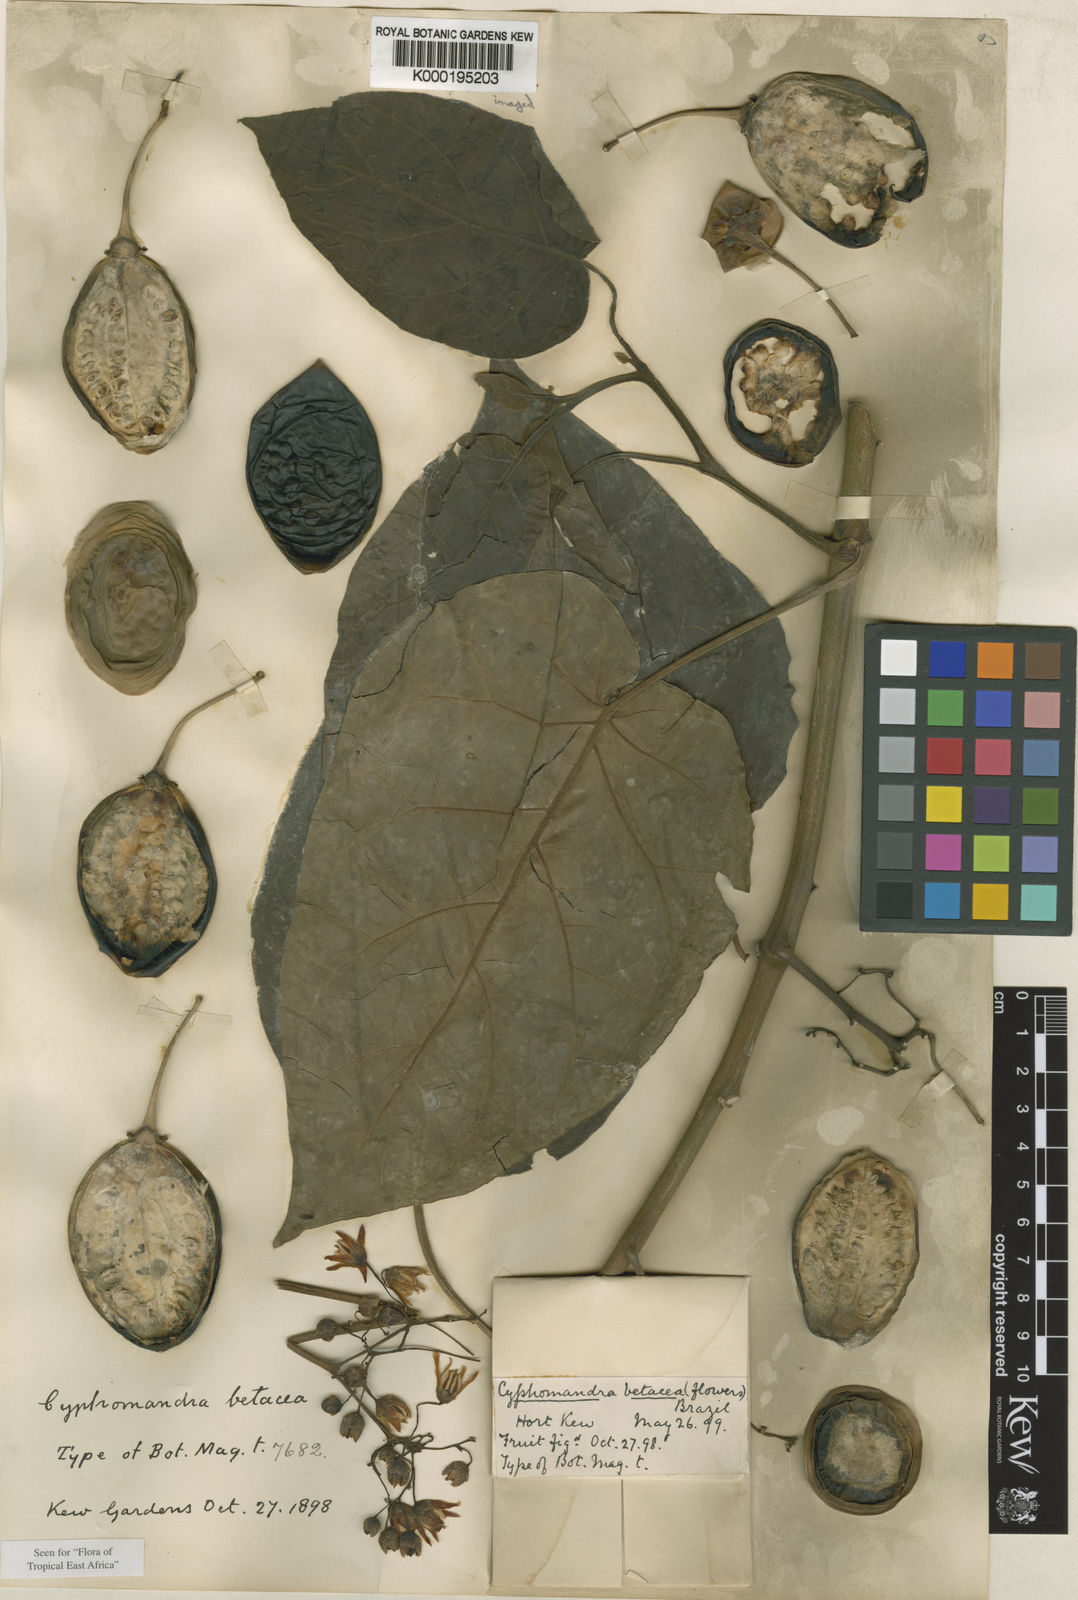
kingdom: Plantae
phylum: Tracheophyta
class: Magnoliopsida
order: Solanales
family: Solanaceae
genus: Solanum
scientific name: Solanum betaceum
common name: Tamarillo
